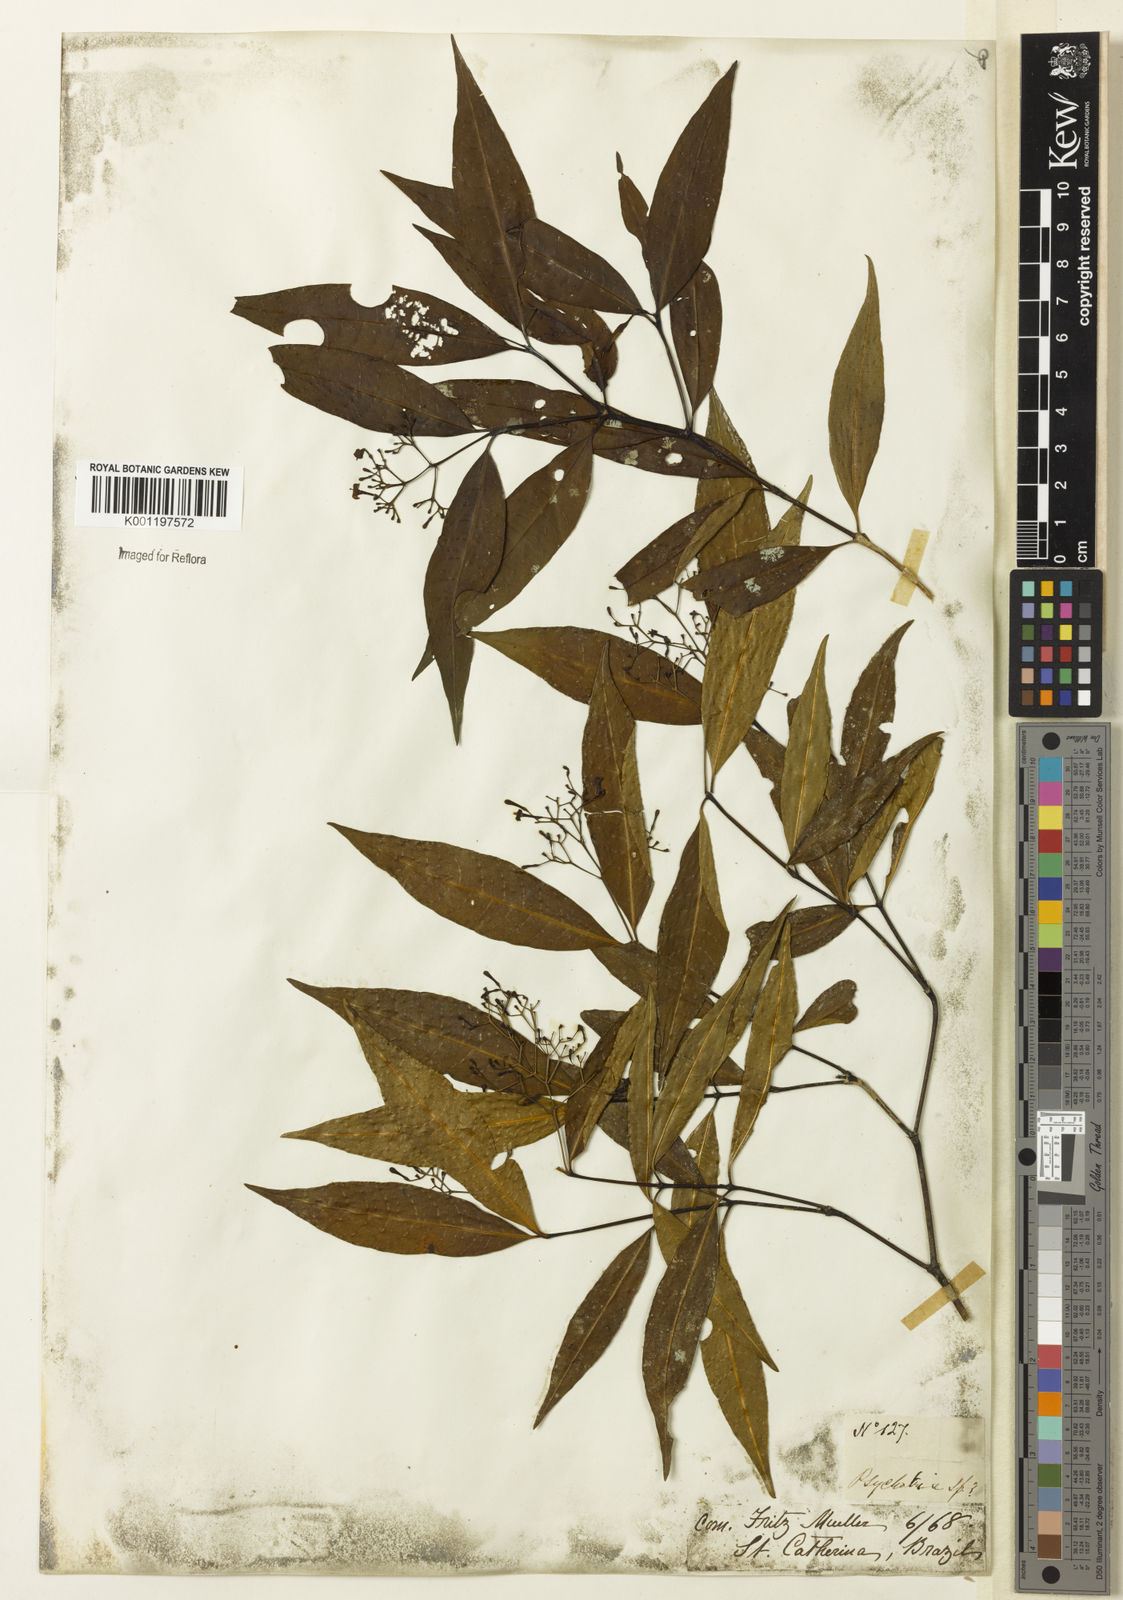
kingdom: Plantae
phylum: Tracheophyta
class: Magnoliopsida
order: Gentianales
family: Rubiaceae
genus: Psychotria
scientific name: Psychotria leiocarpa
